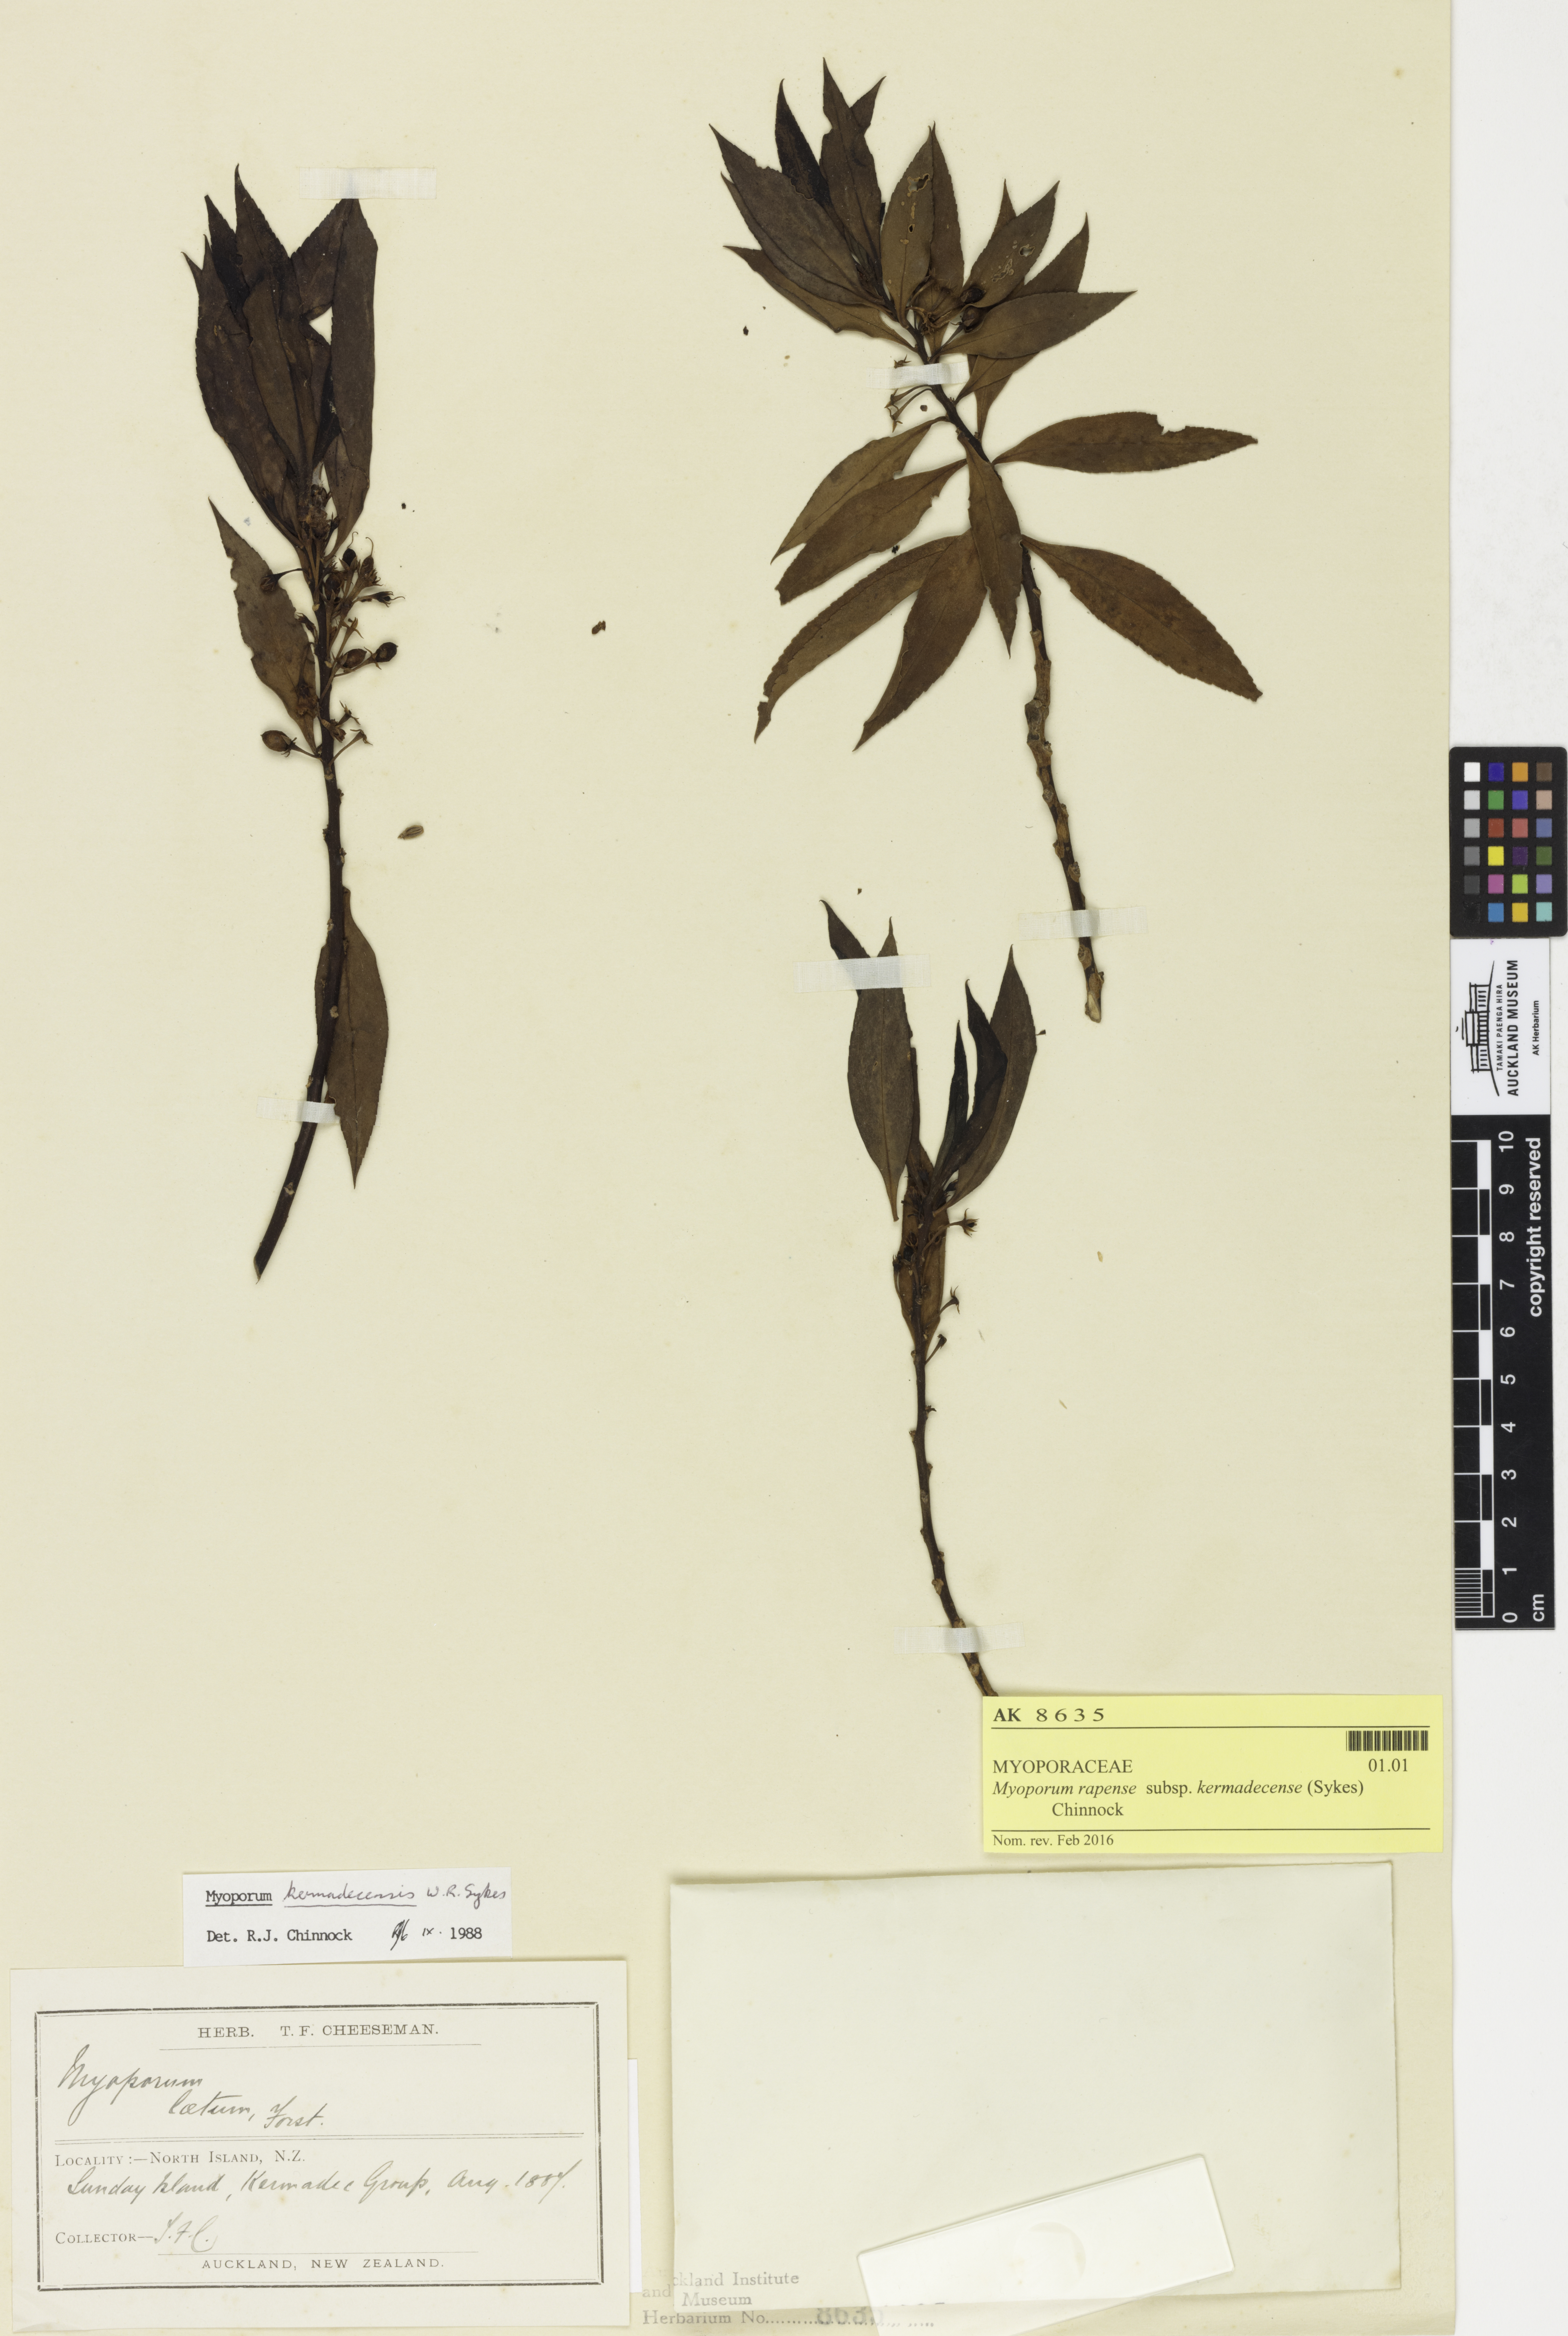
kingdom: Plantae
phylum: Tracheophyta
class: Magnoliopsida
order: Lamiales
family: Scrophulariaceae
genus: Myoporum
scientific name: Myoporum rapense
